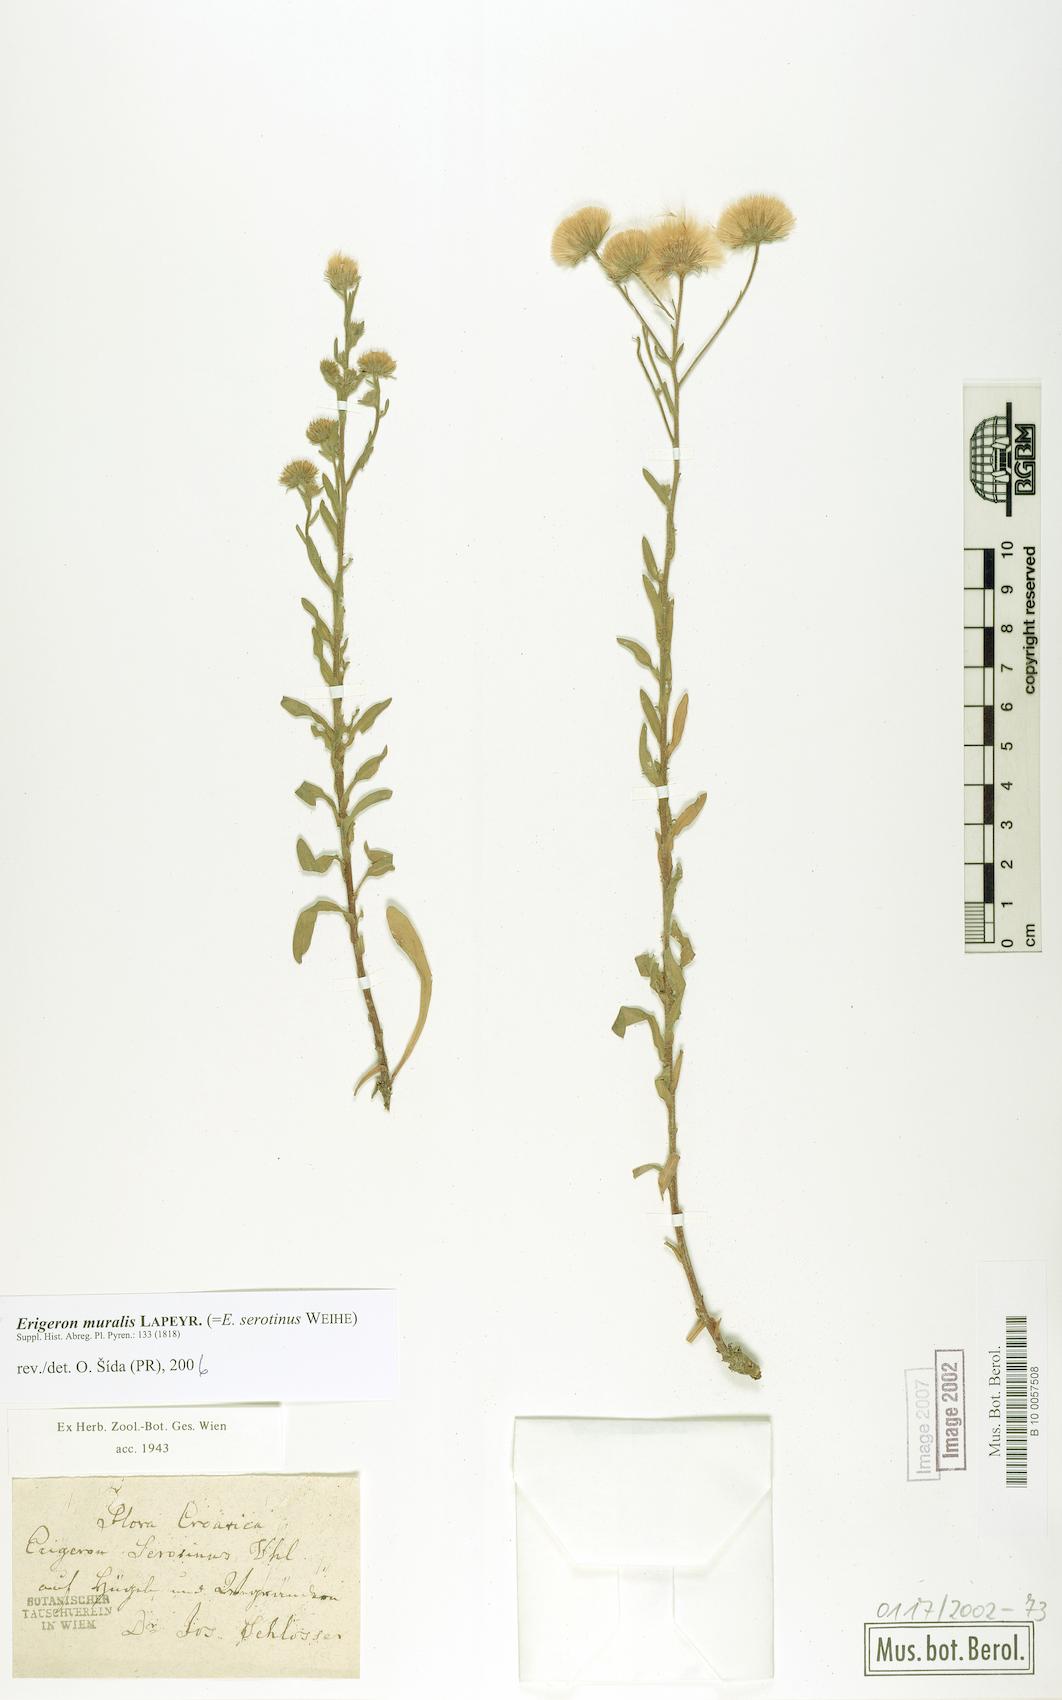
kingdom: Plantae
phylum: Tracheophyta
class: Magnoliopsida
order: Asterales
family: Asteraceae
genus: Erigeron
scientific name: Erigeron muralis
